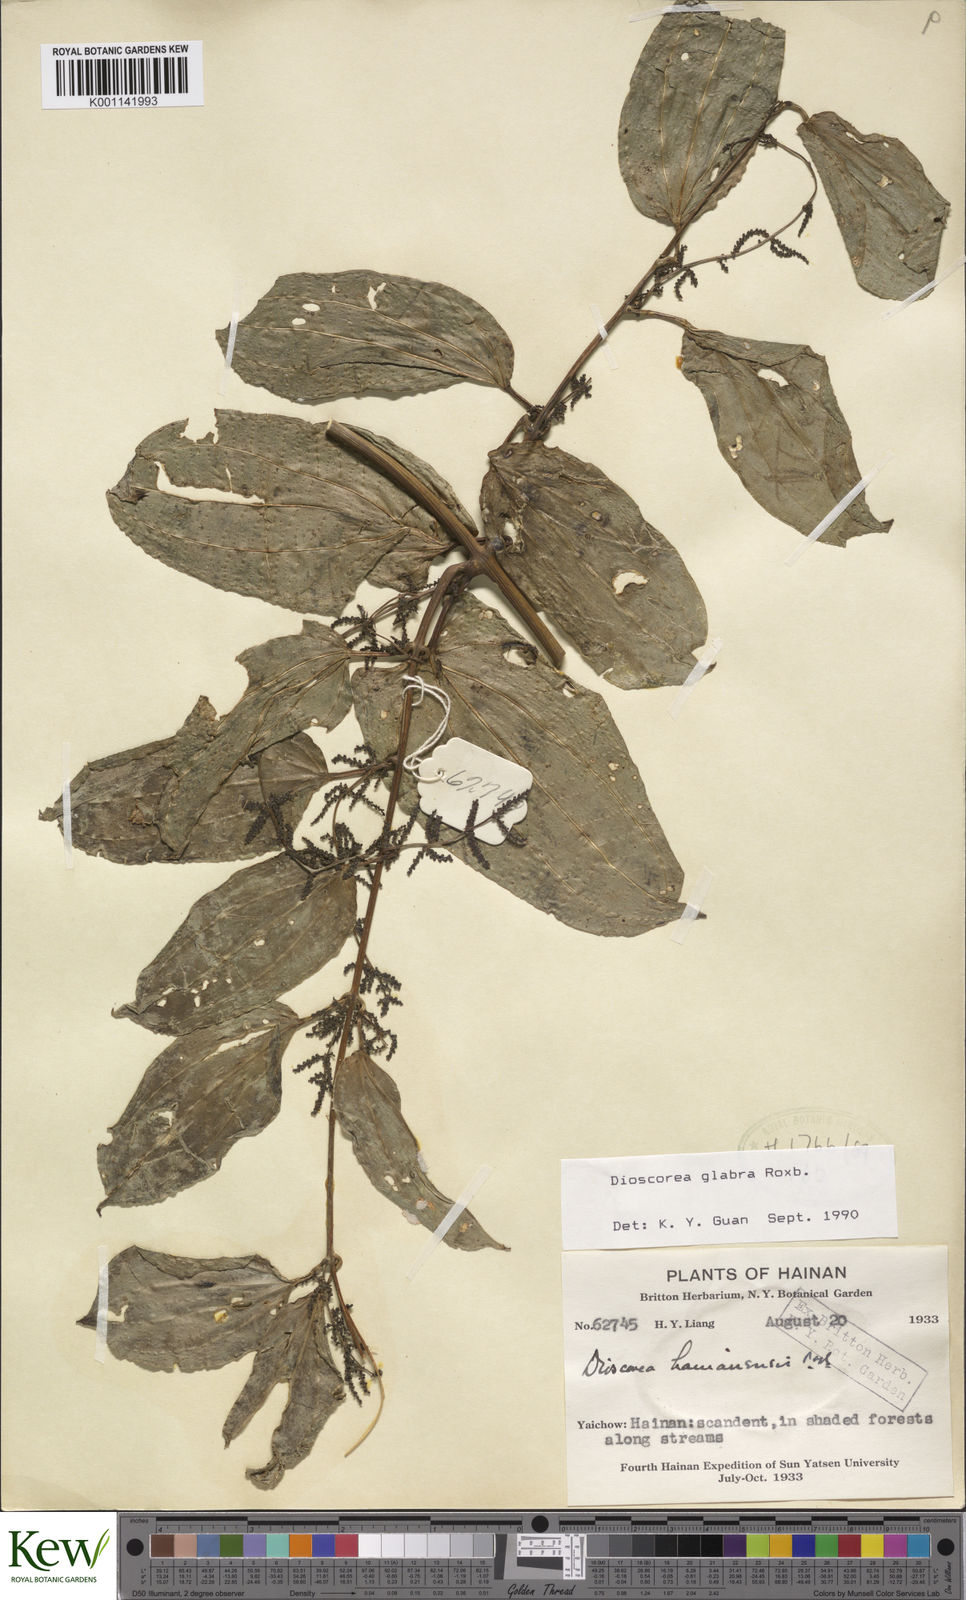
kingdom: Plantae
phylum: Tracheophyta
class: Liliopsida
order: Dioscoreales
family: Dioscoreaceae
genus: Dioscorea
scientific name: Dioscorea glabra
